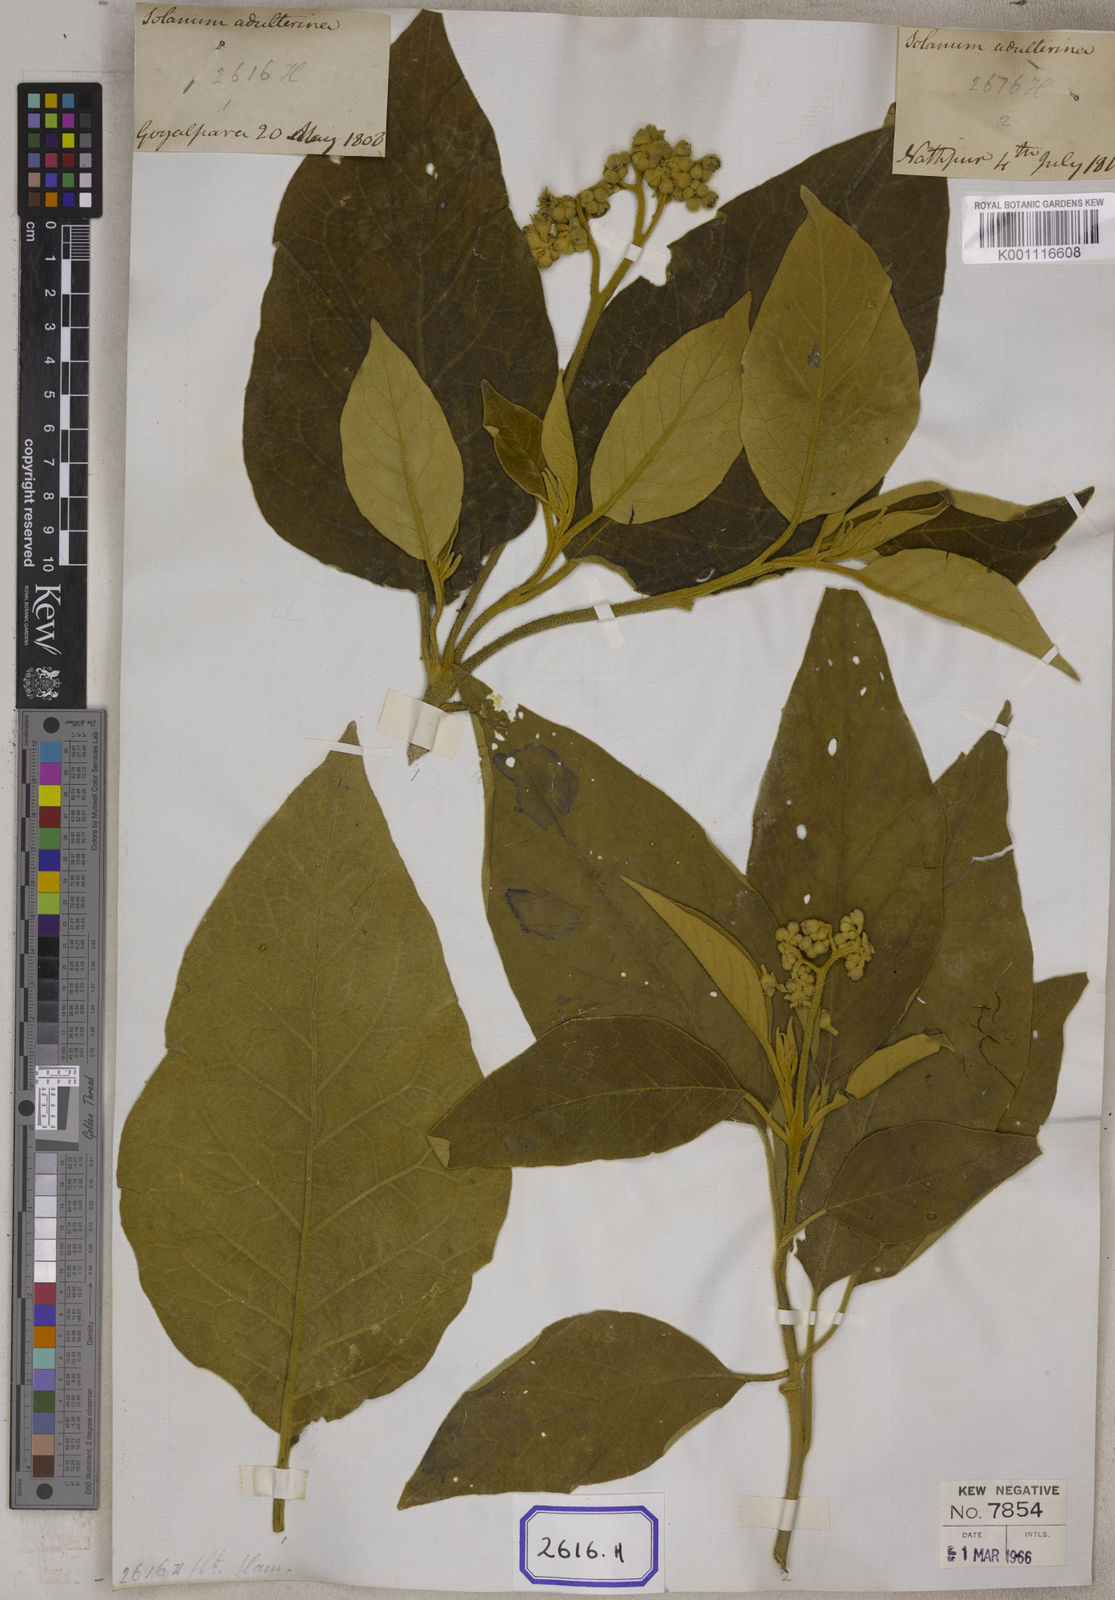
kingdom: Plantae
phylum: Tracheophyta
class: Magnoliopsida
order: Solanales
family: Solanaceae
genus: Solanum
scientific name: Solanum donianum
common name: Mullein nightshade
